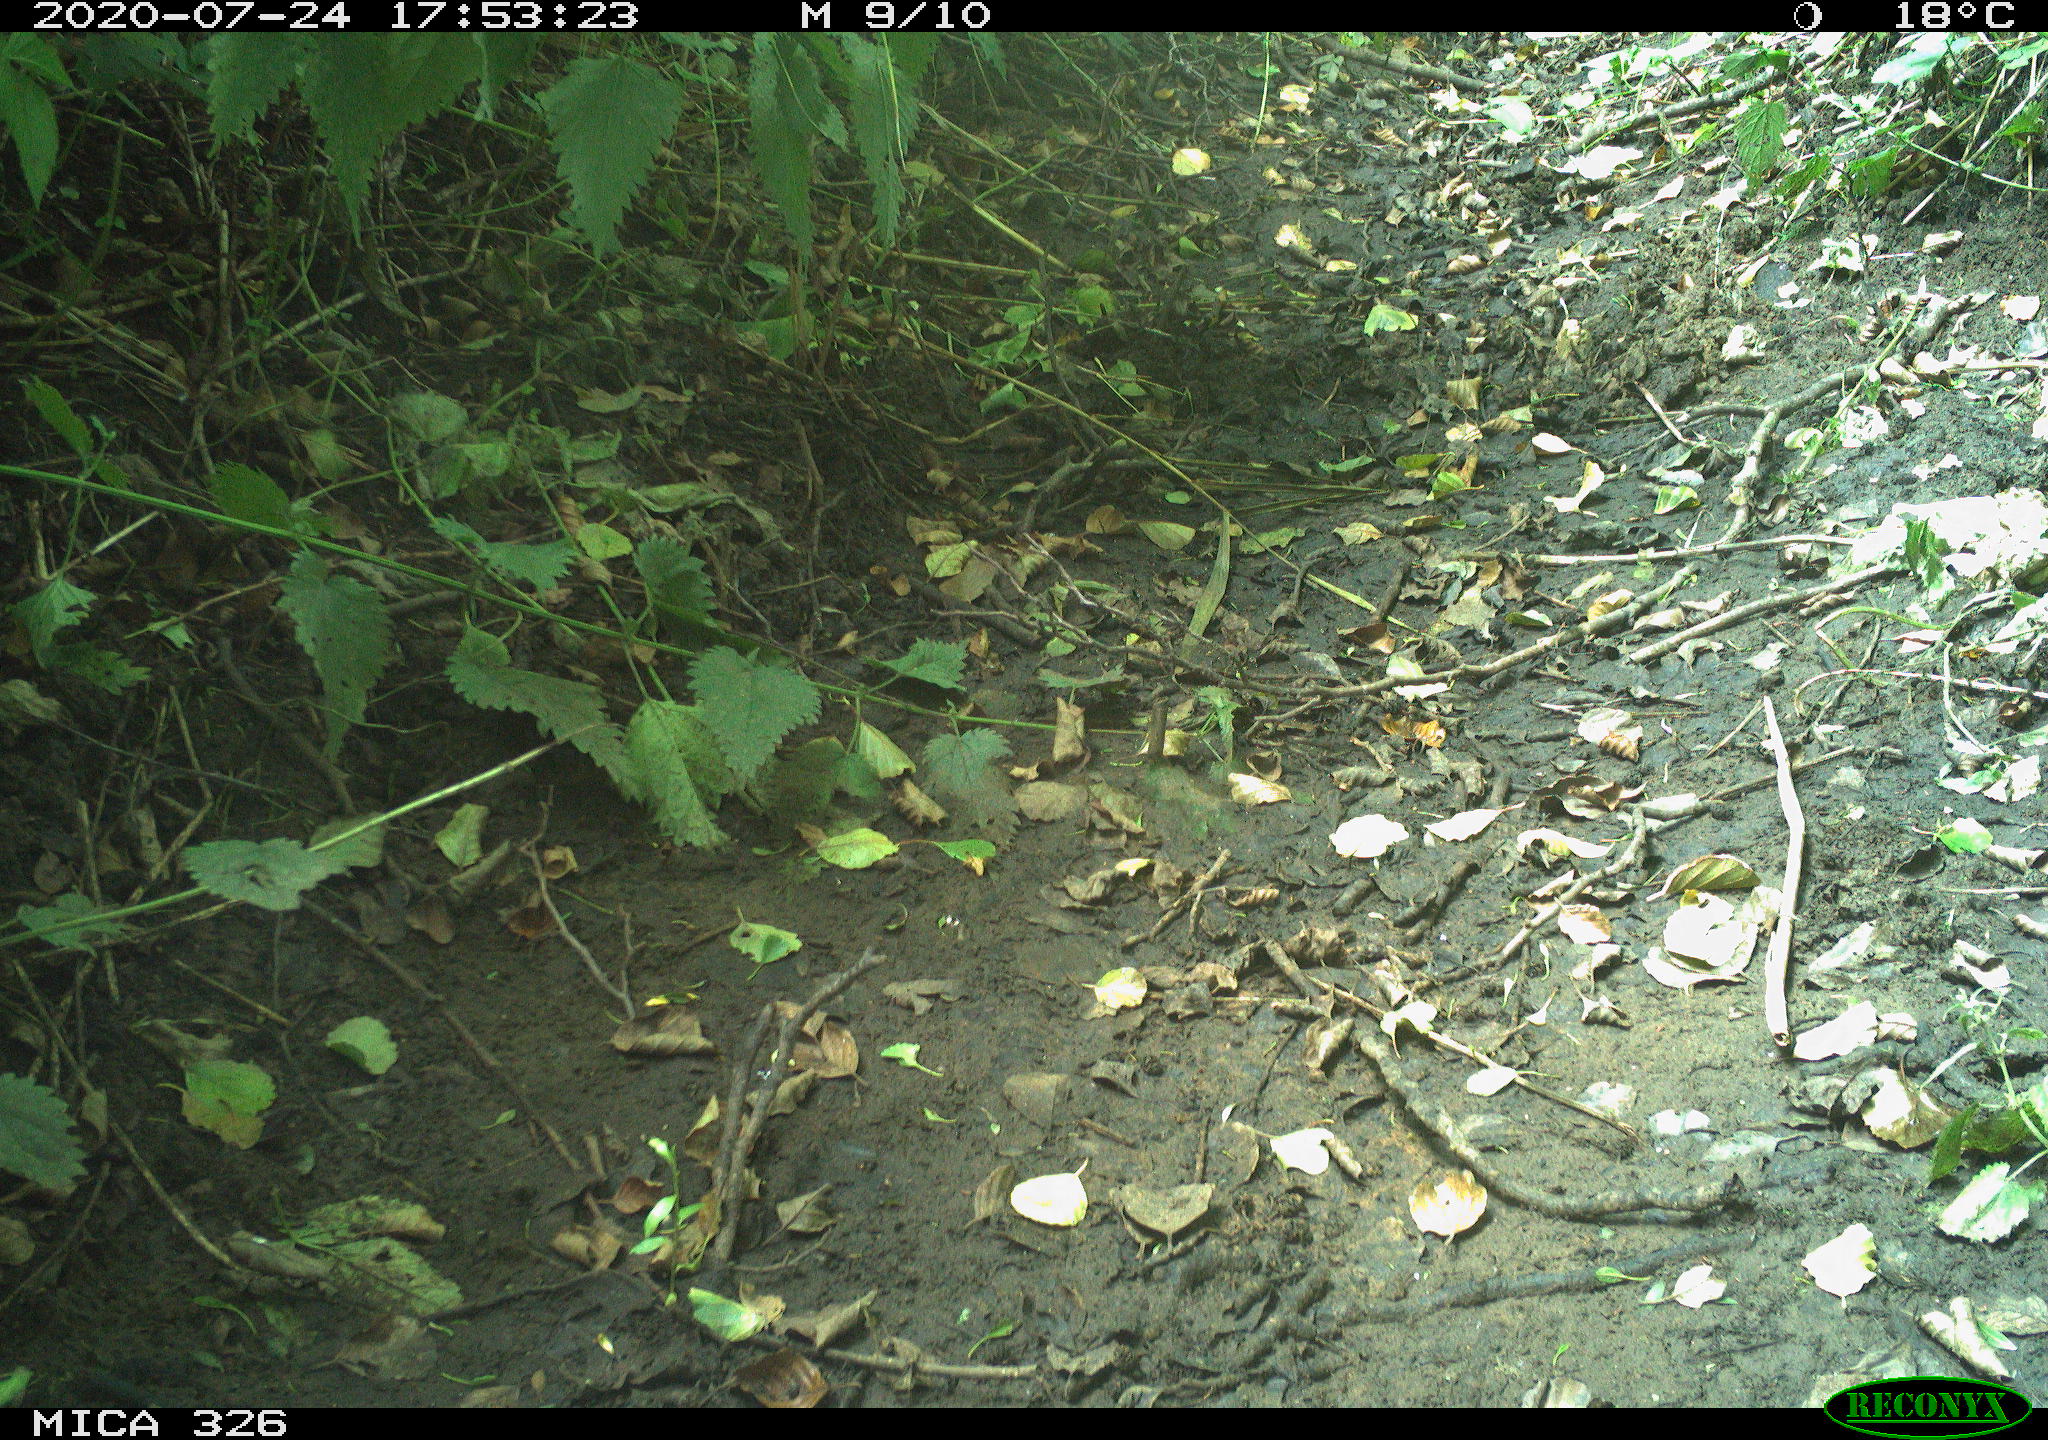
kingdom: Animalia
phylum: Chordata
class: Aves
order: Passeriformes
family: Turdidae
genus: Turdus
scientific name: Turdus philomelos
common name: Song thrush
